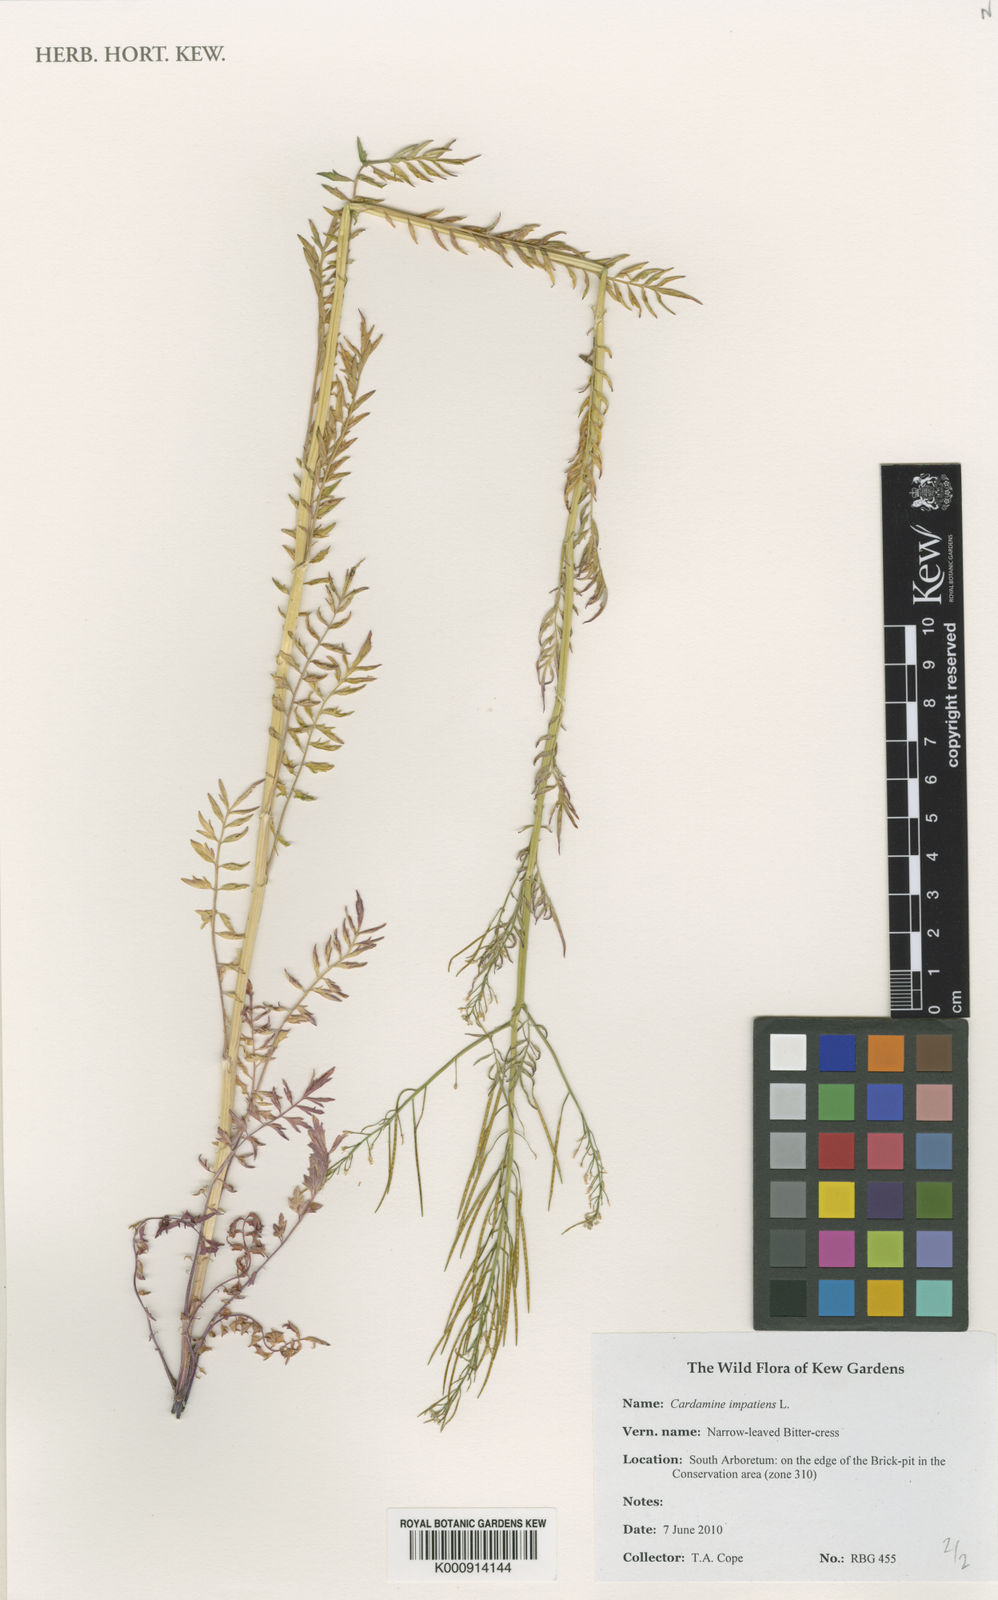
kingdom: Plantae
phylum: Tracheophyta
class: Magnoliopsida
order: Brassicales
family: Brassicaceae
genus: Cardamine
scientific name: Cardamine impatiens
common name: Narrow-leaved bitter-cress
